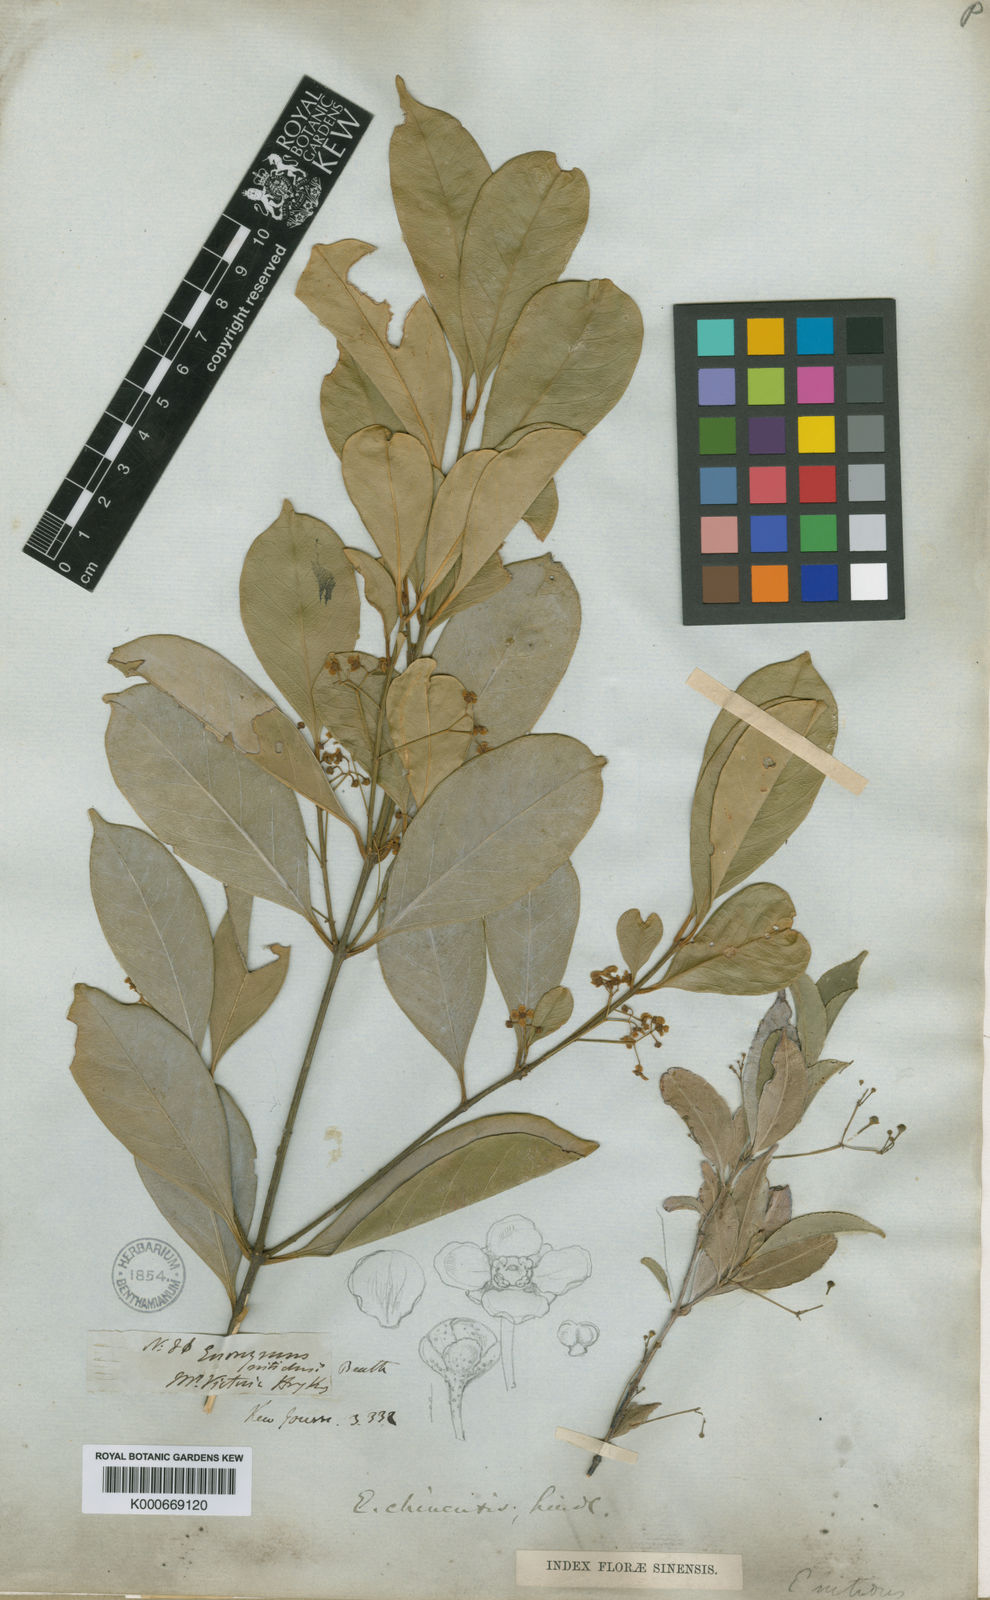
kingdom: Plantae
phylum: Tracheophyta
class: Magnoliopsida
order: Celastrales
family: Celastraceae
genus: Euonymus
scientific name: Euonymus nitidus
